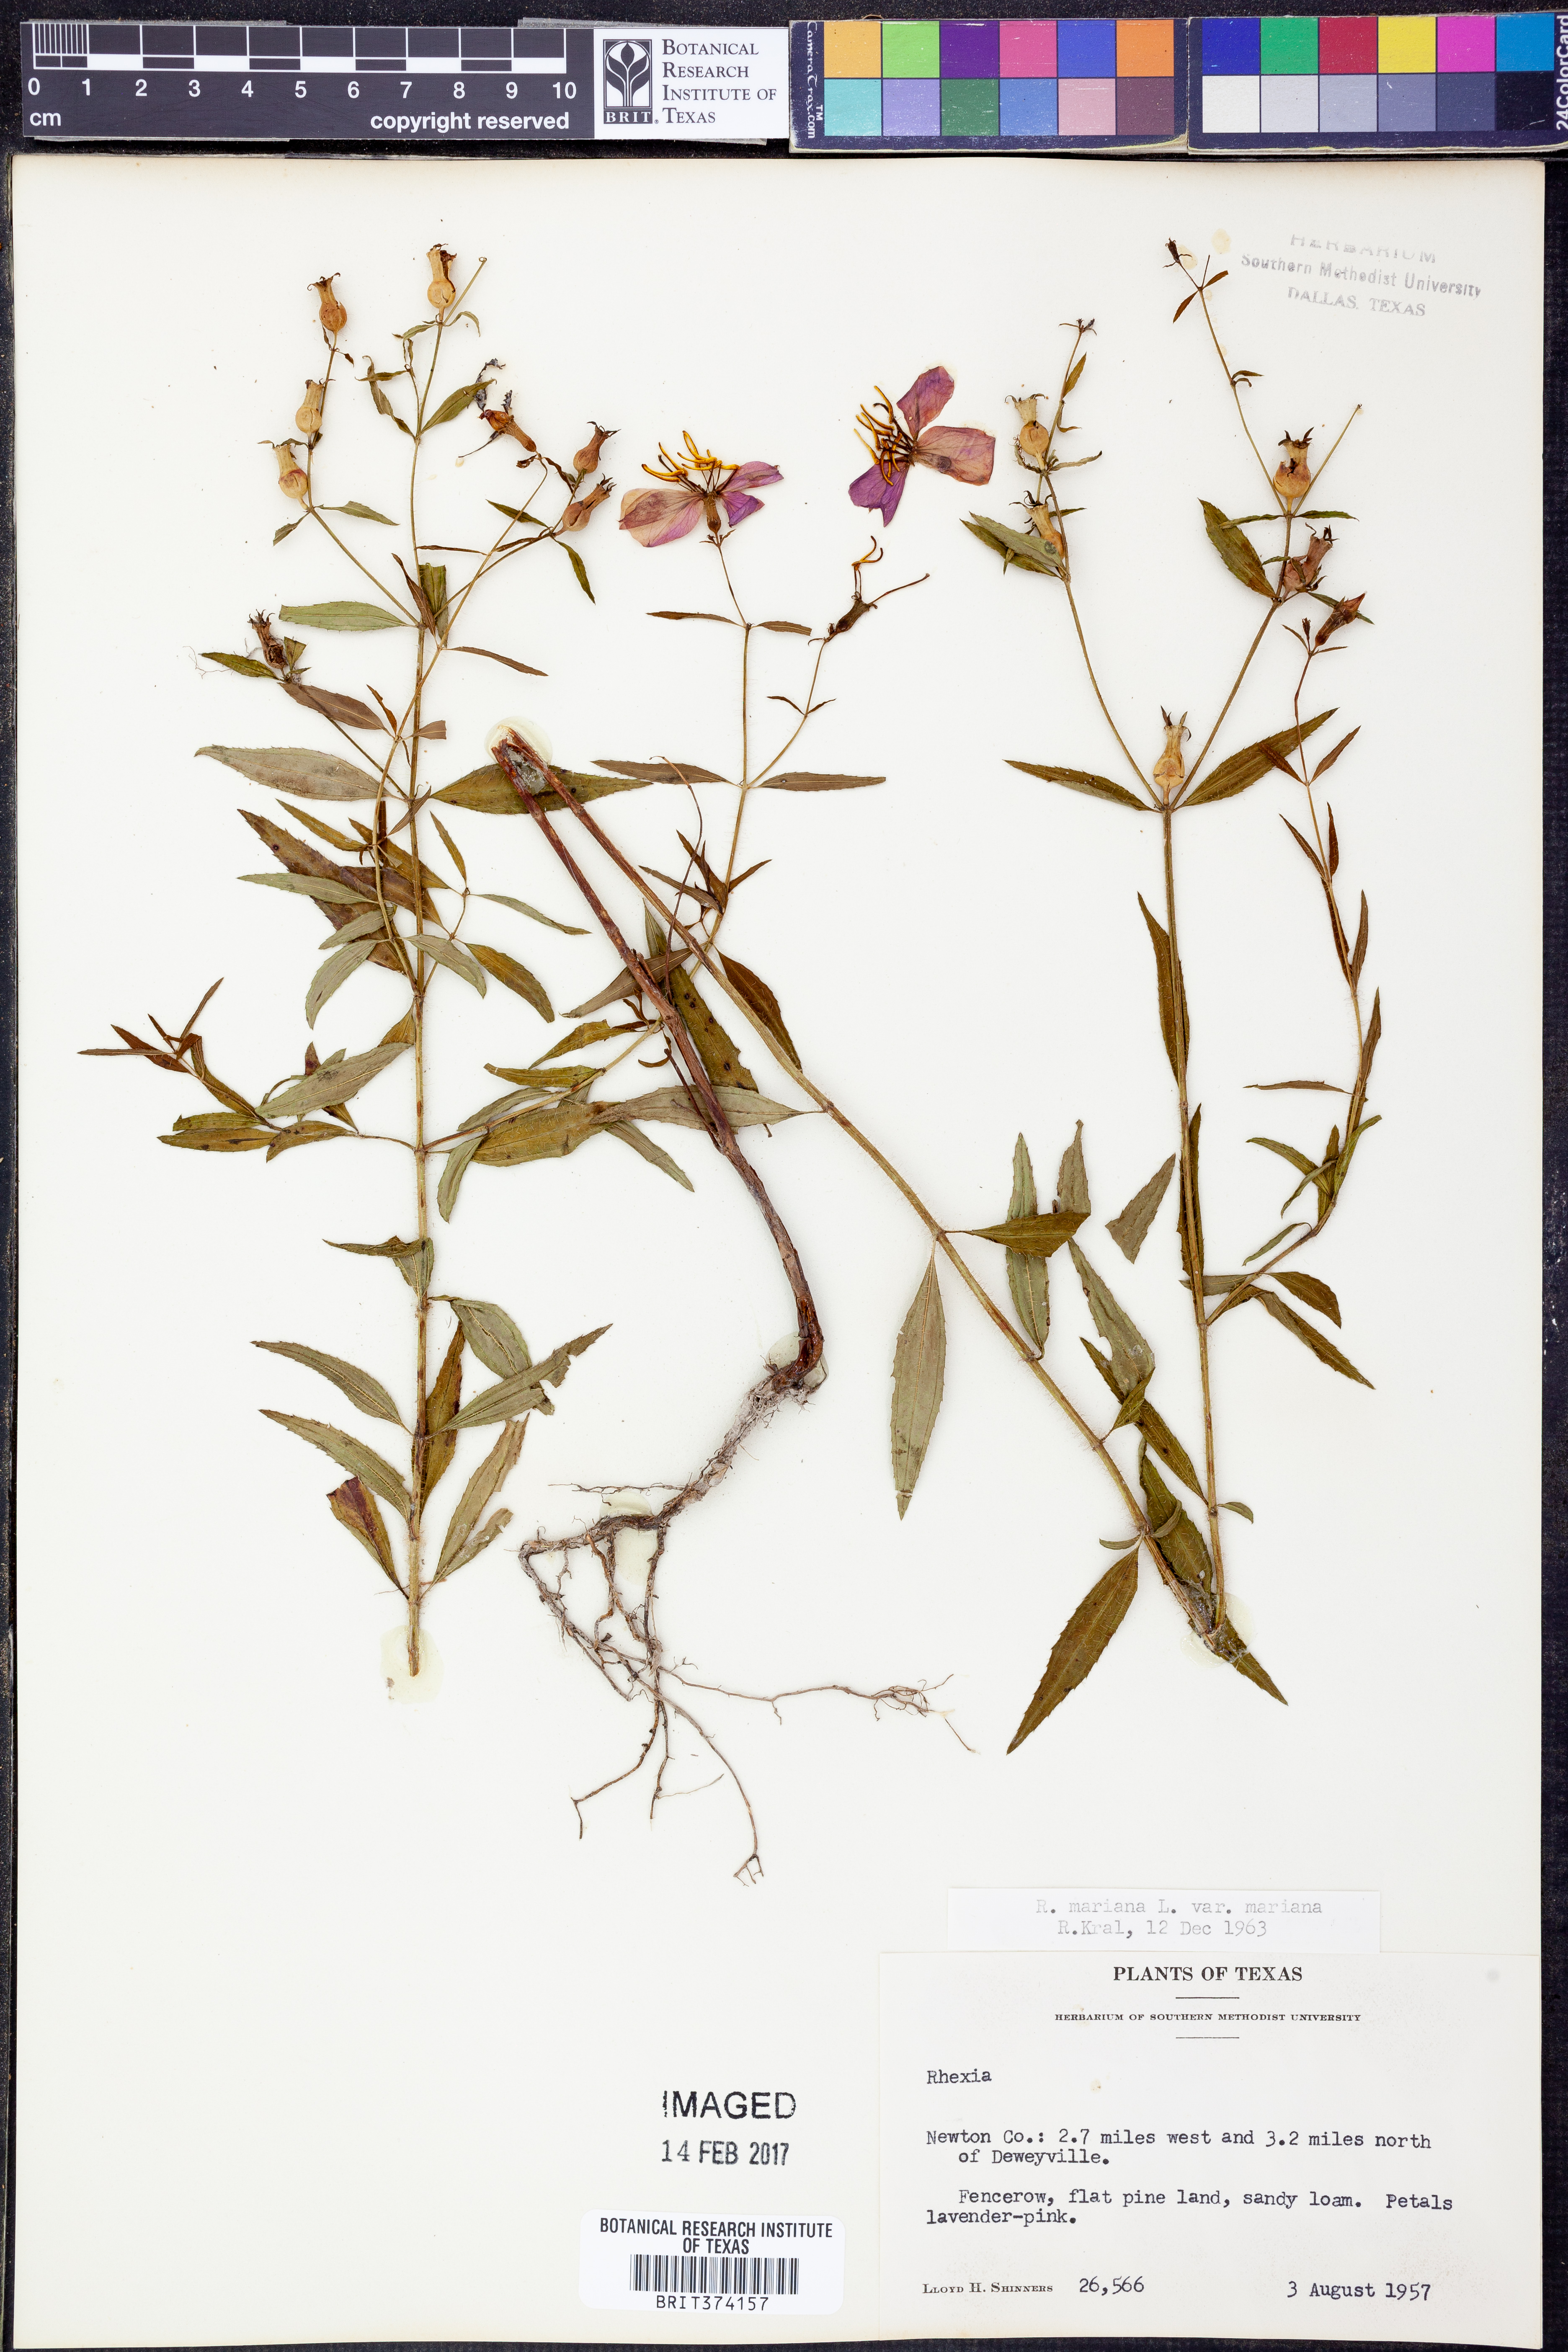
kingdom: Plantae
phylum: Tracheophyta
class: Magnoliopsida
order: Myrtales
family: Melastomataceae
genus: Rhexia
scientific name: Rhexia mariana
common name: Dull meadow-pitcher
